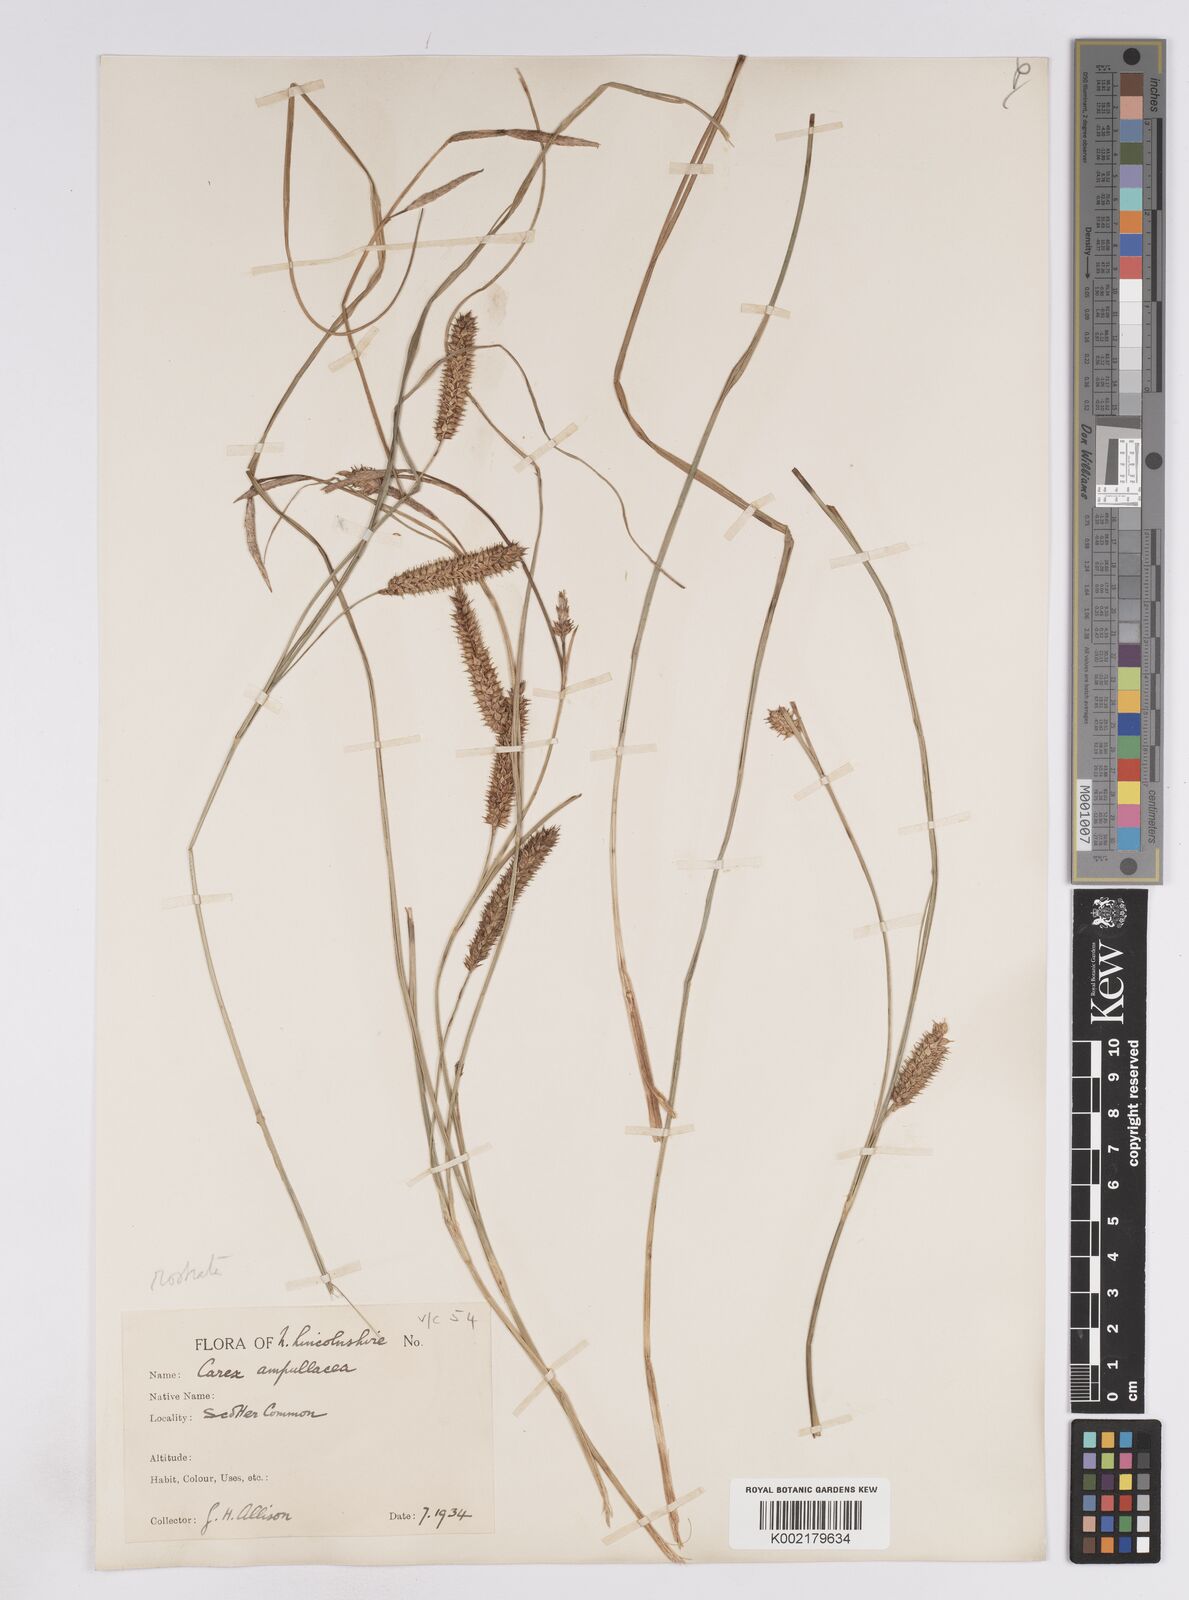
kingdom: Plantae
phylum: Tracheophyta
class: Liliopsida
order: Poales
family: Cyperaceae
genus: Carex
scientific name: Carex rostrata
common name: Bottle sedge
